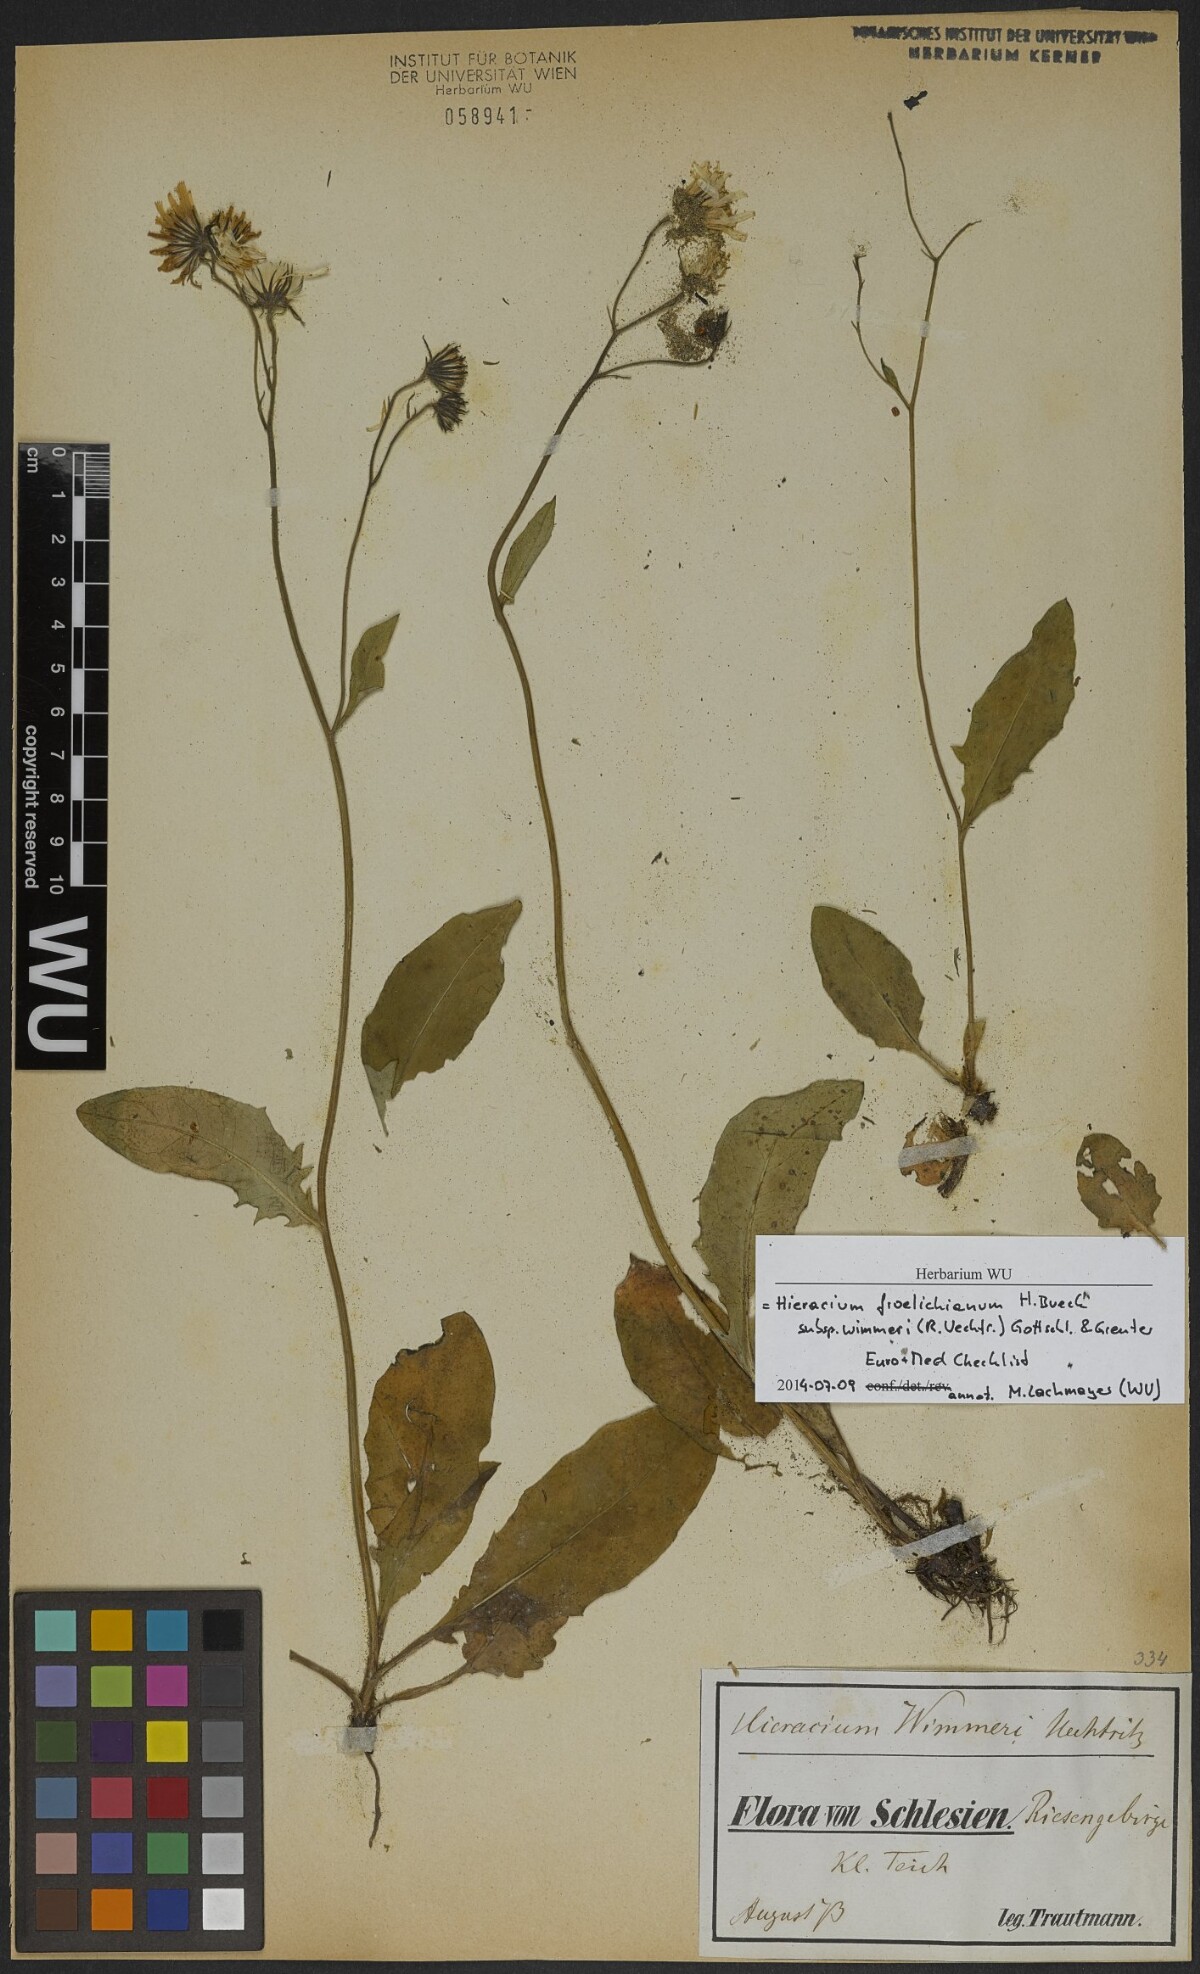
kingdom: Plantae
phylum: Tracheophyta
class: Magnoliopsida
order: Asterales
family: Asteraceae
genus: Hieracium
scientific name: Hieracium froelichianum
